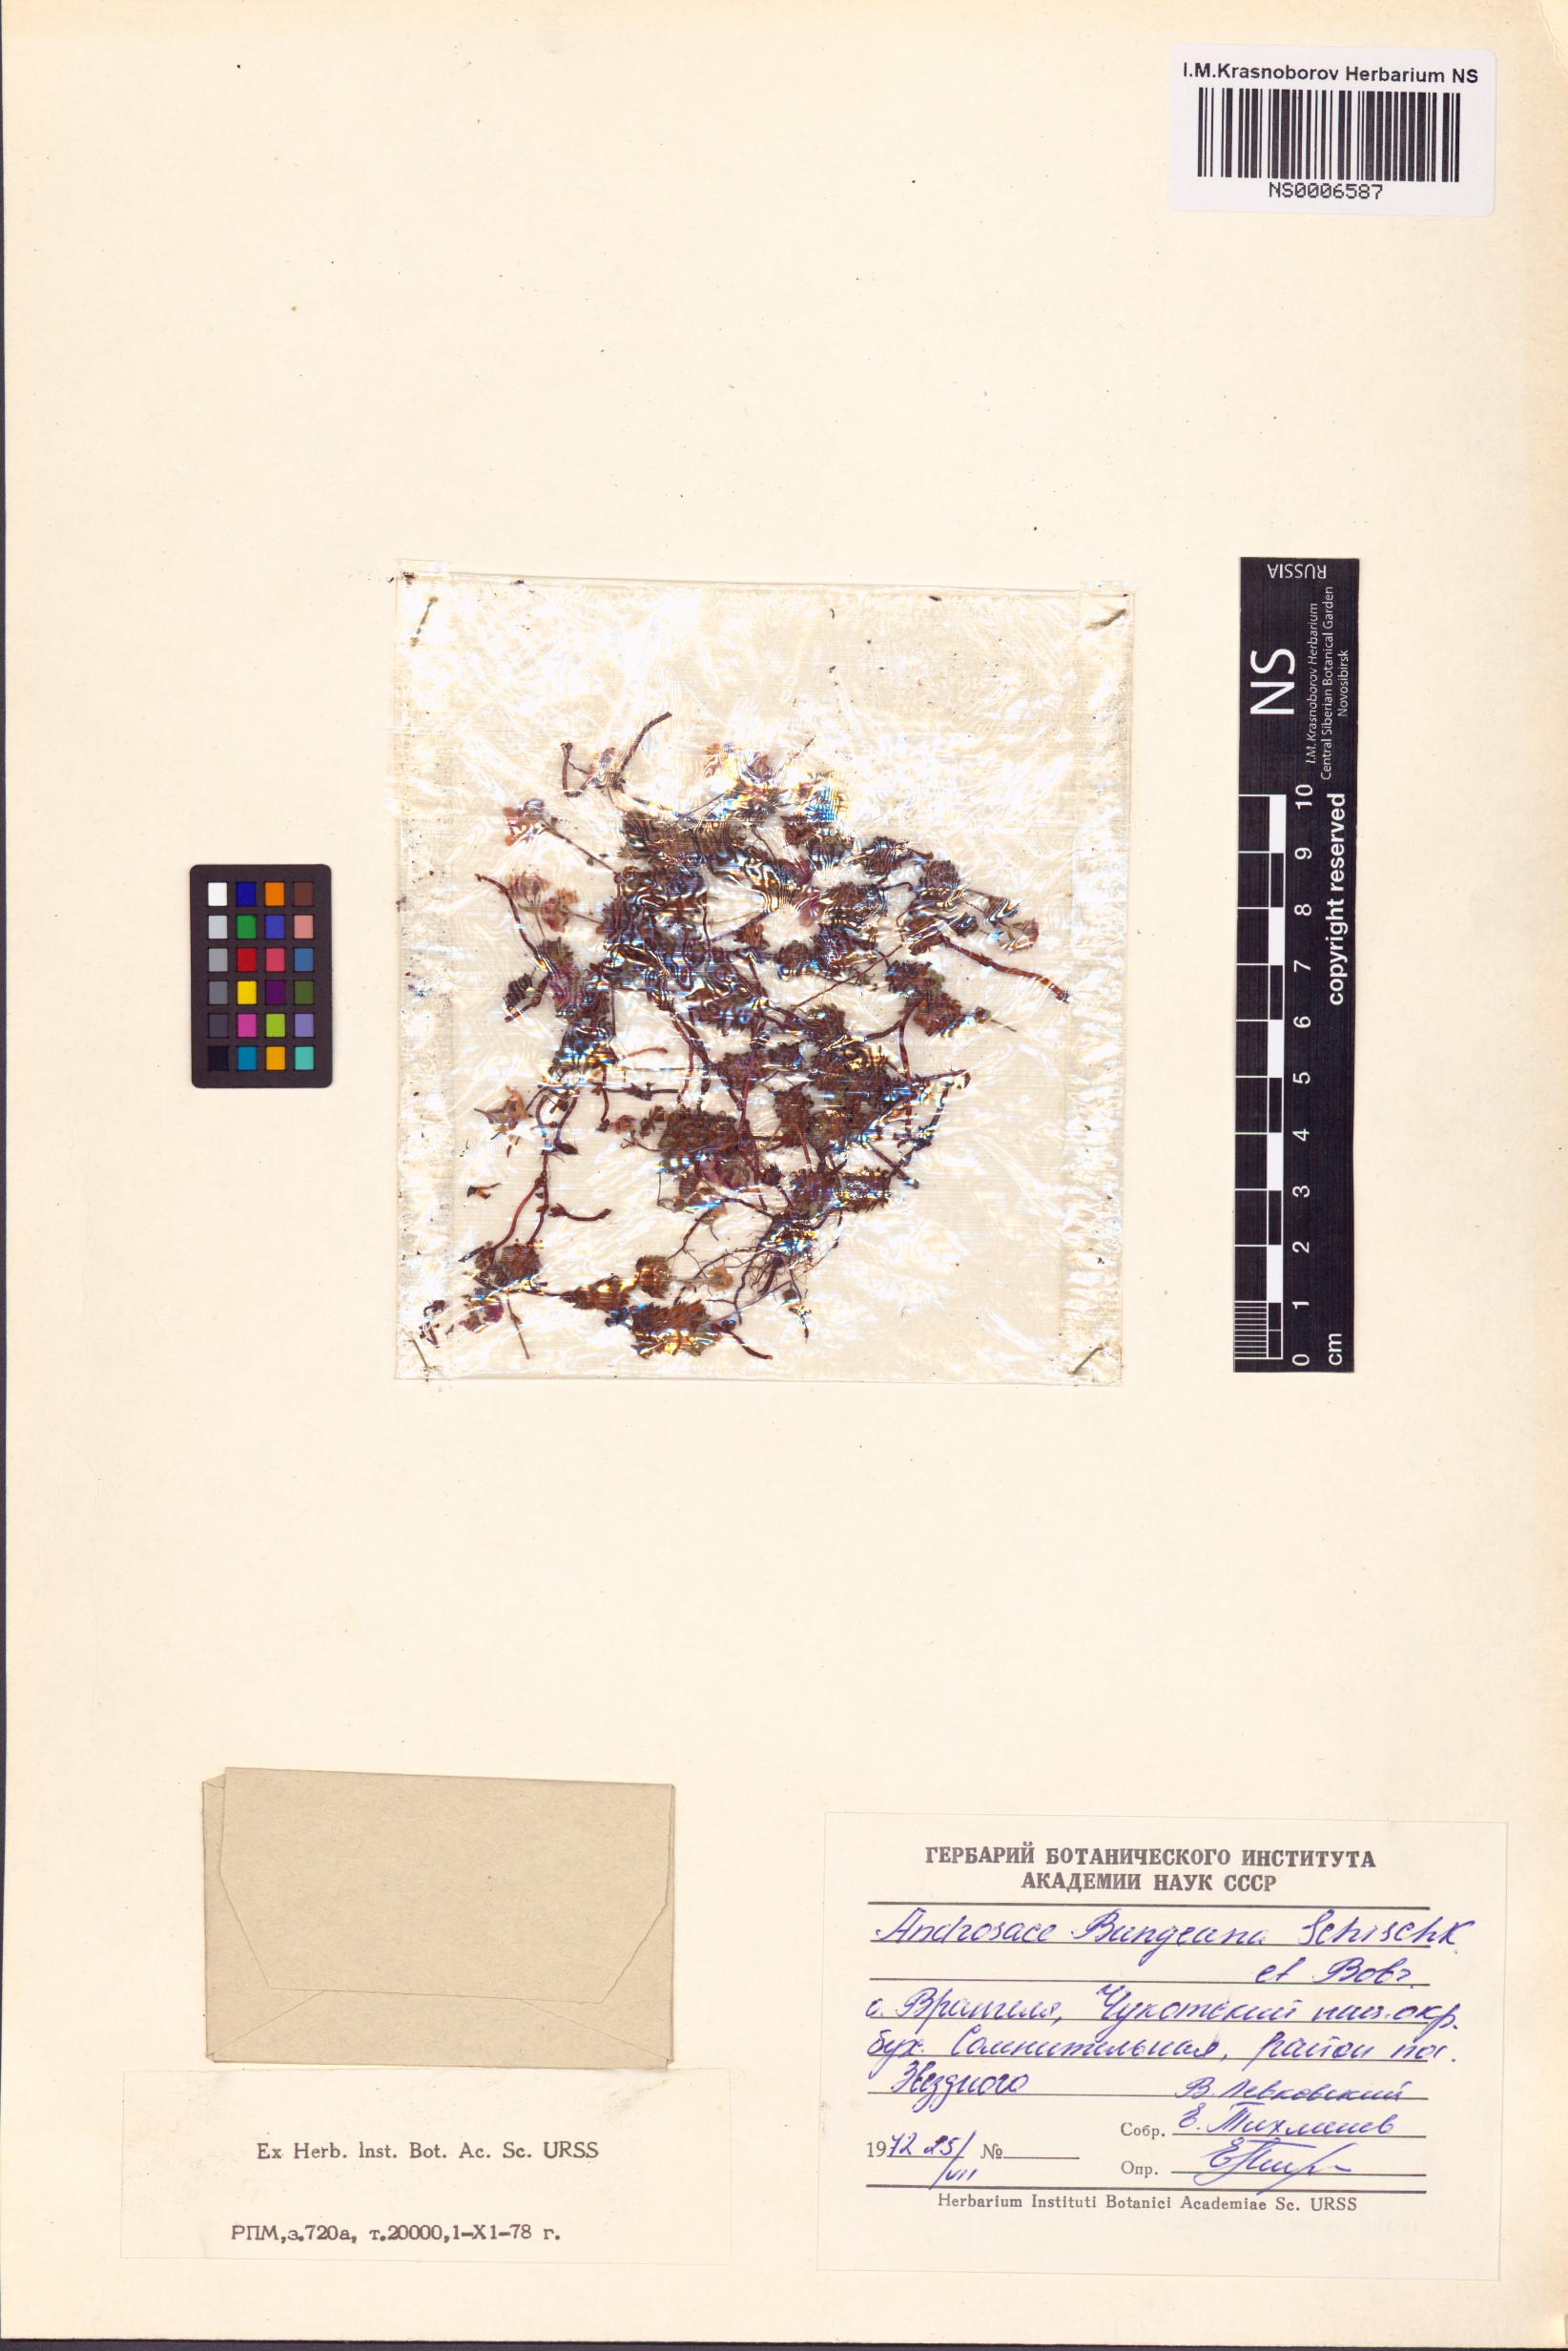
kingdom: Plantae
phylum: Tracheophyta
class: Magnoliopsida
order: Ericales
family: Primulaceae
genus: Androsace
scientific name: Androsace bungeana
